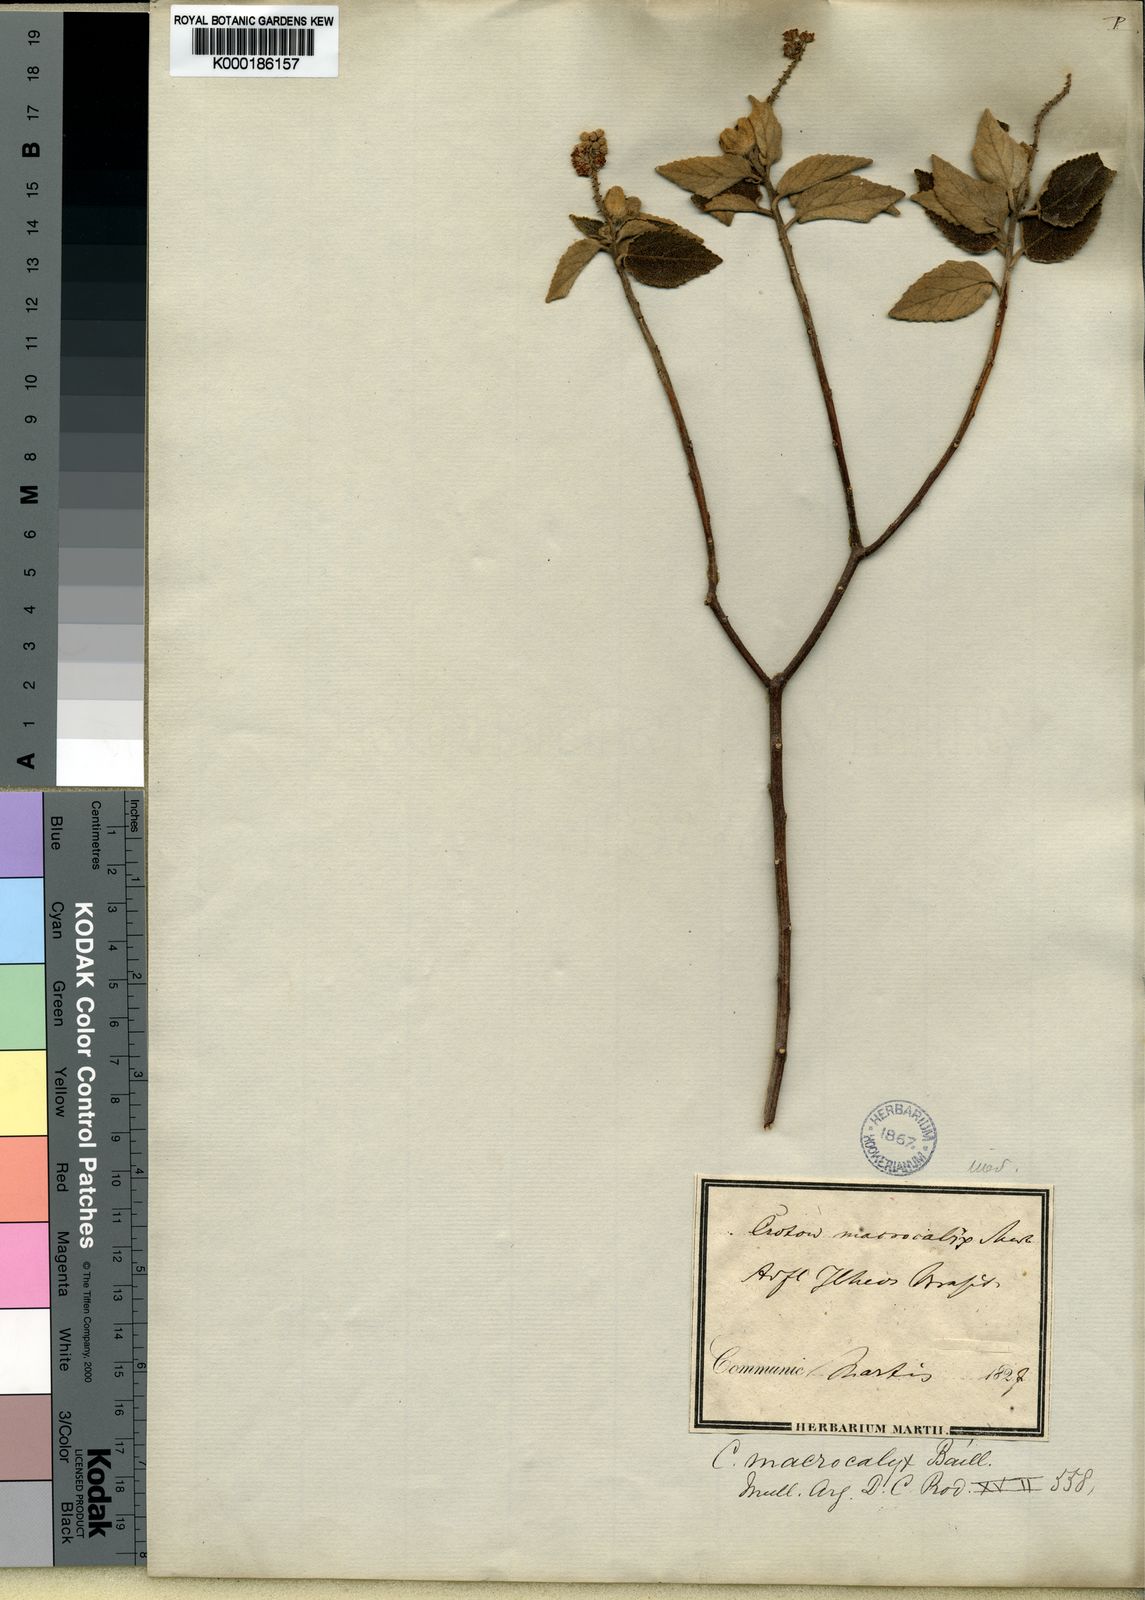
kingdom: Plantae
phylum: Tracheophyta
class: Magnoliopsida
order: Malpighiales
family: Euphorbiaceae
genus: Croton
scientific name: Croton macrocalyx
